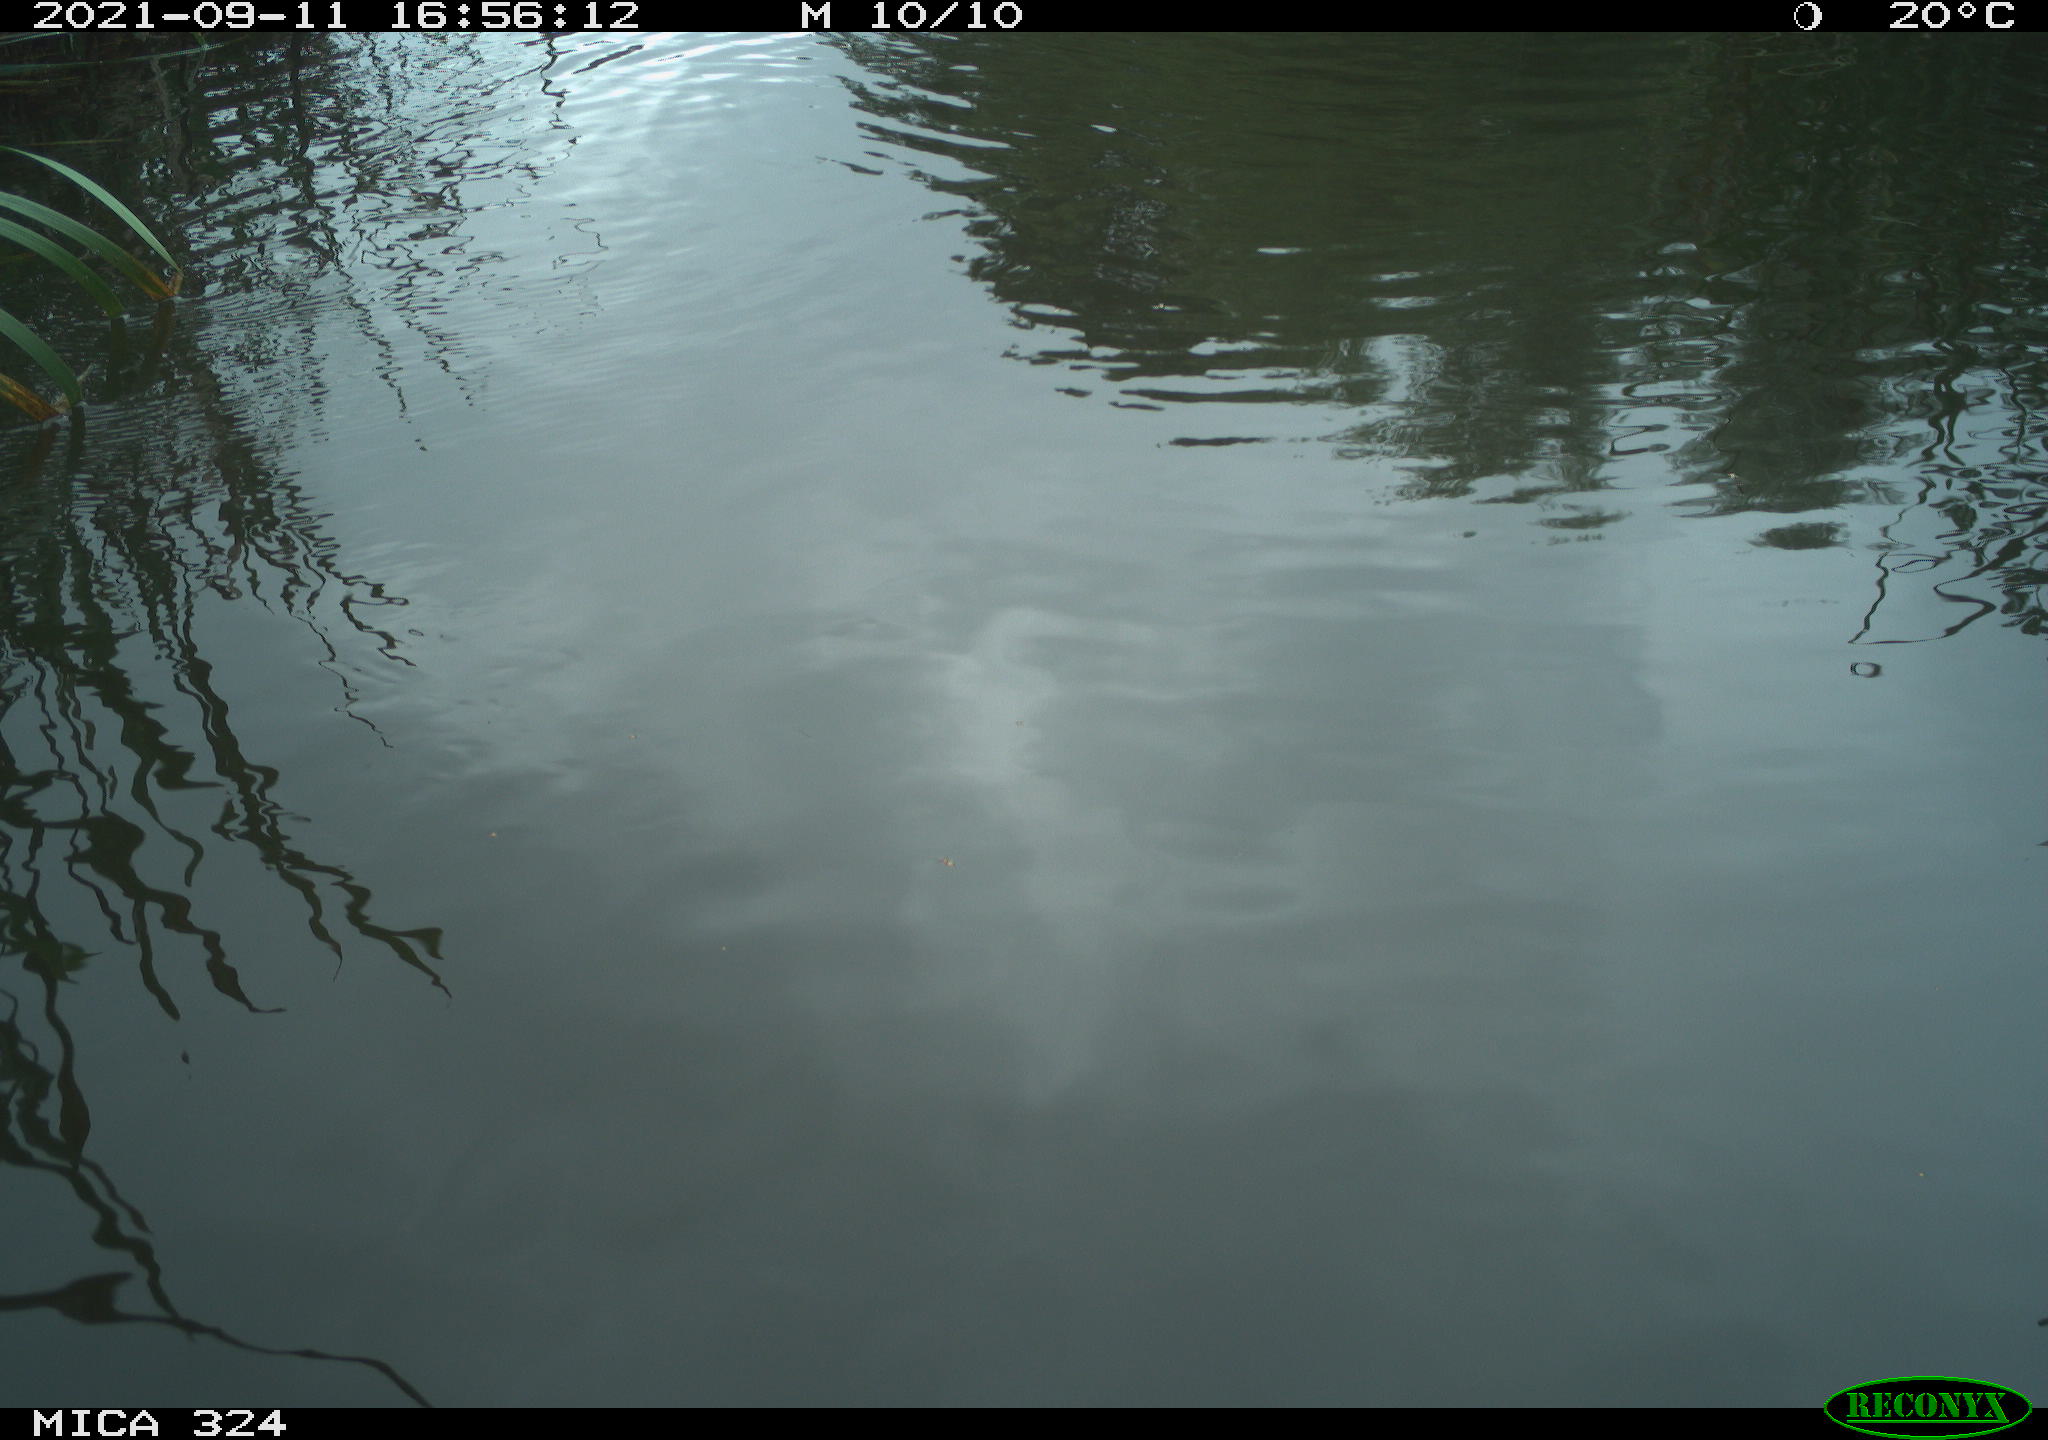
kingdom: Animalia
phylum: Chordata
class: Mammalia
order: Rodentia
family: Cricetidae
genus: Ondatra
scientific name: Ondatra zibethicus
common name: Muskrat
